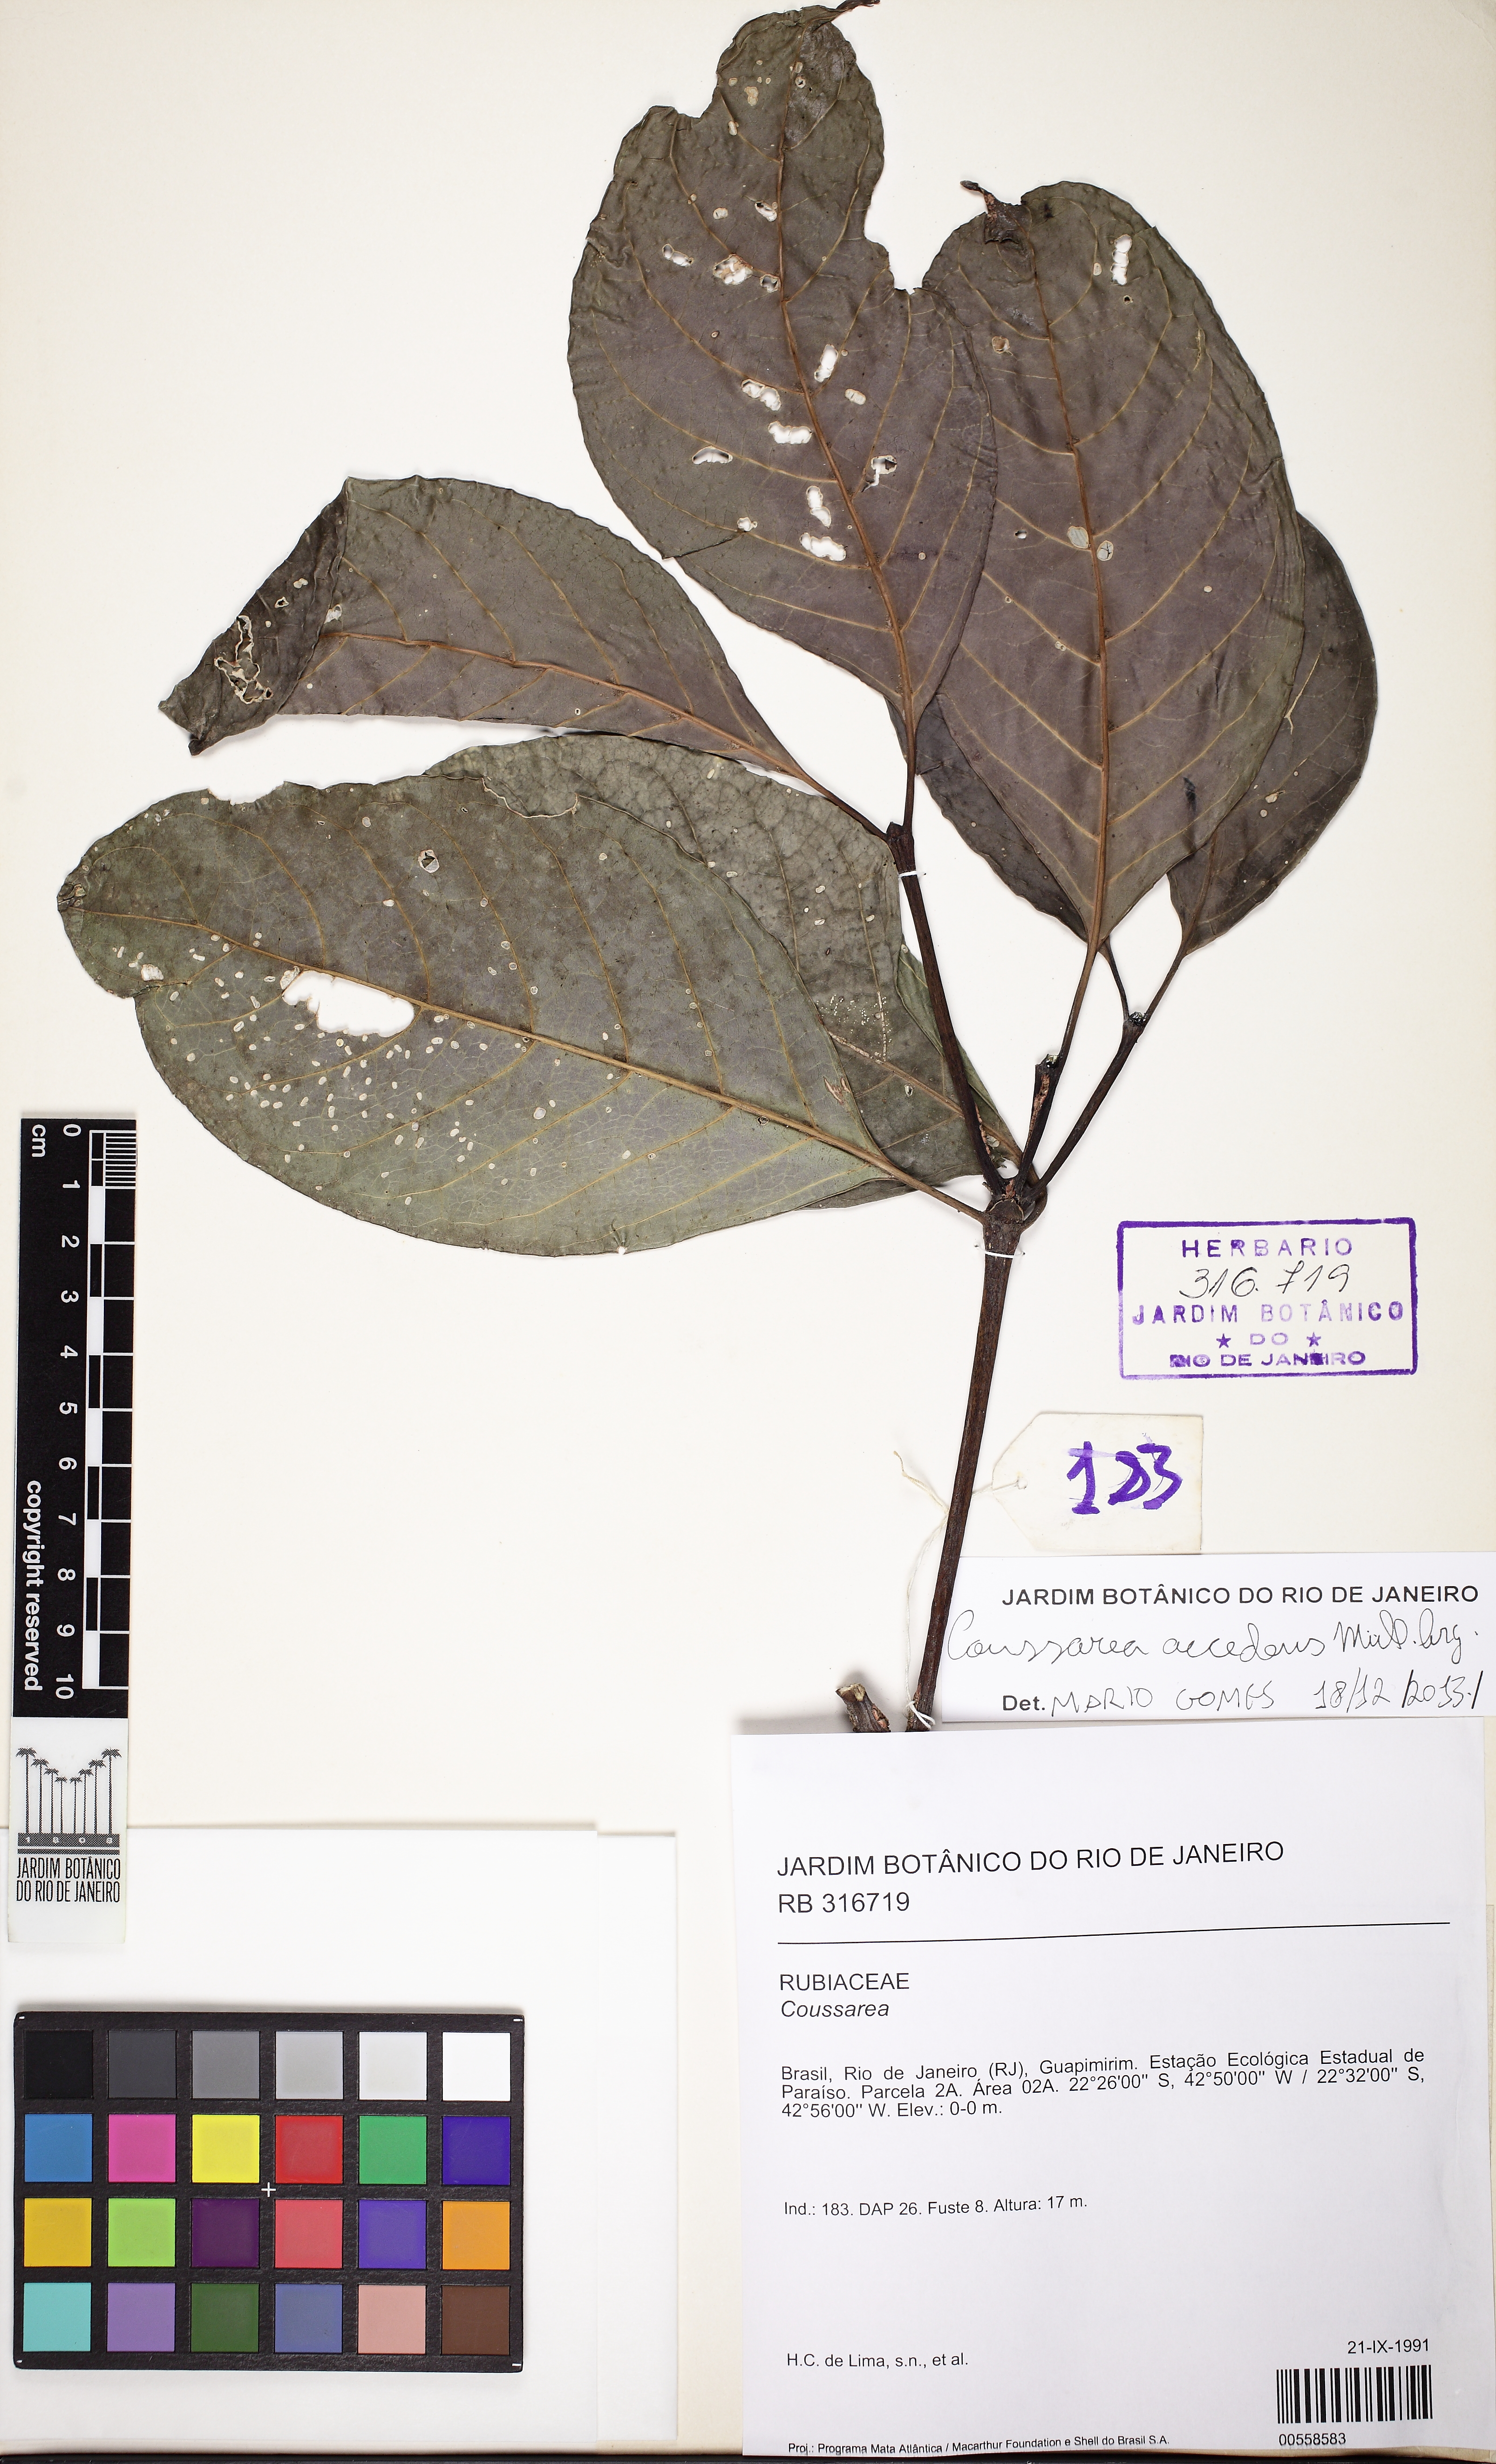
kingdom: Plantae
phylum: Tracheophyta
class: Magnoliopsida
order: Gentianales
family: Rubiaceae
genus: Coussarea
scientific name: Coussarea accedens
